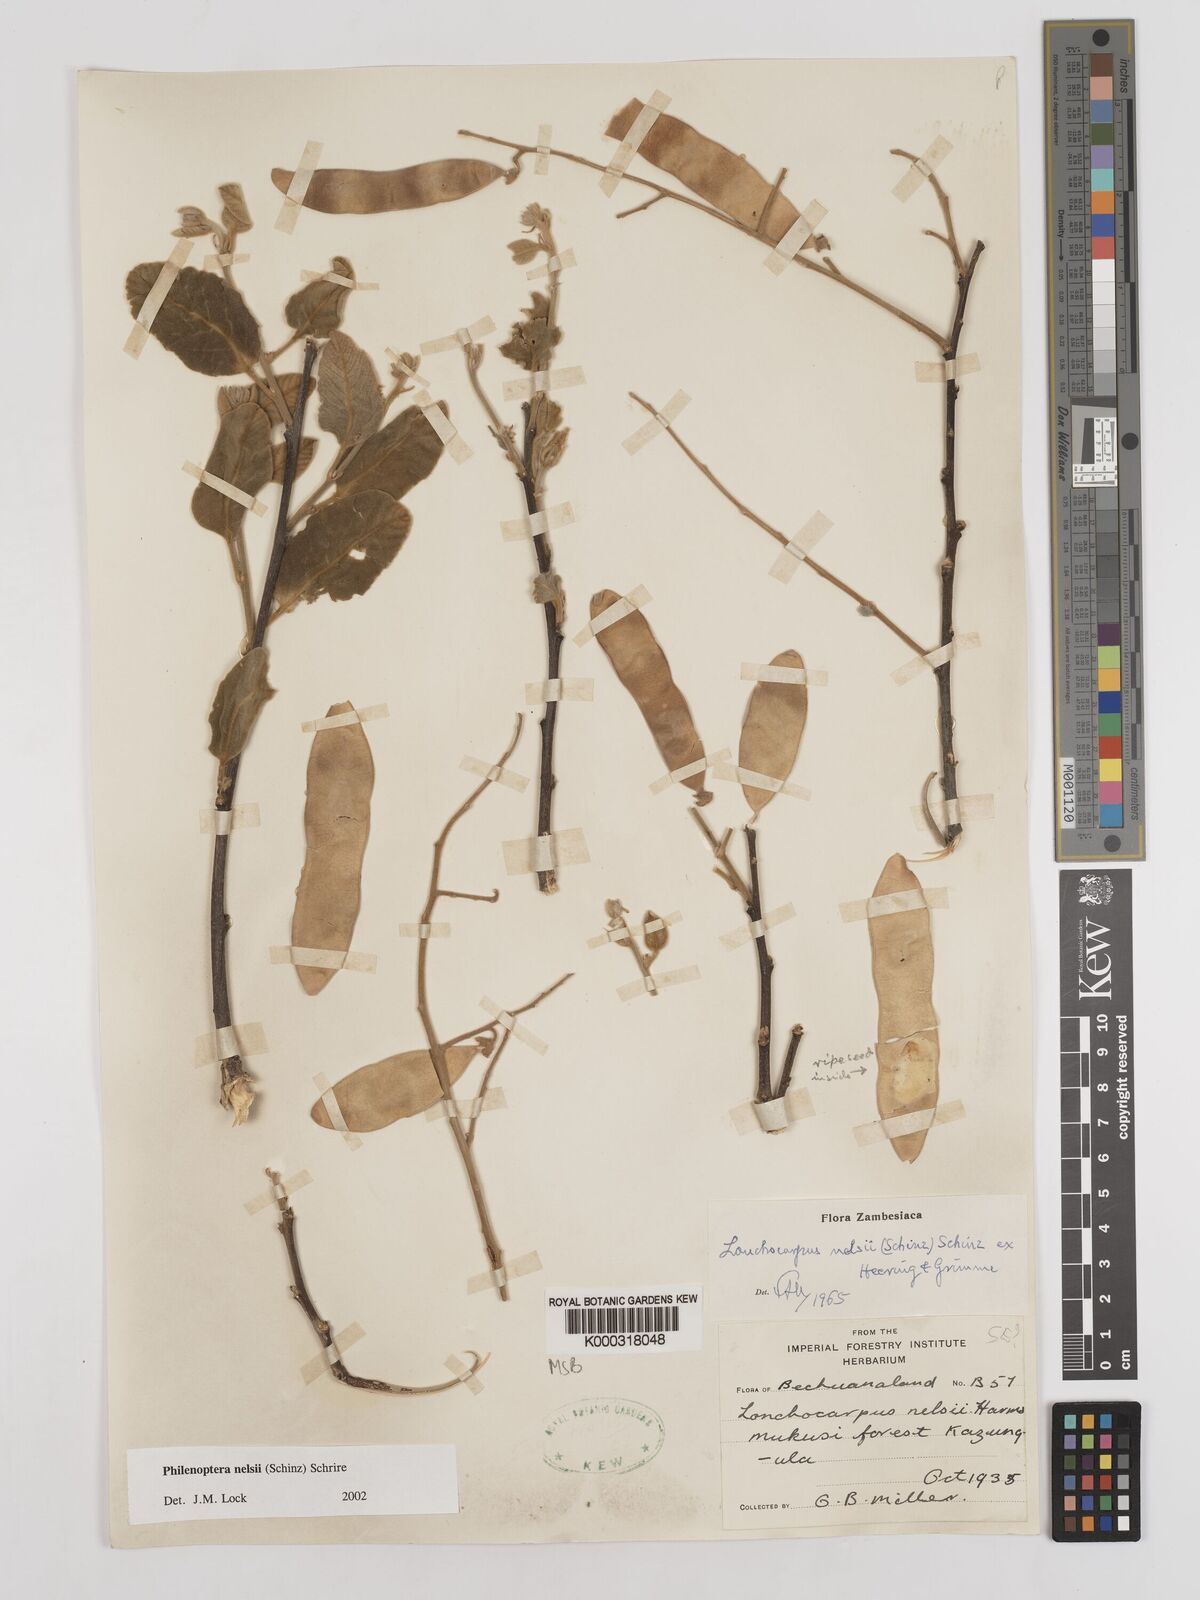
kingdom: Plantae
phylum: Tracheophyta
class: Magnoliopsida
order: Fabales
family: Fabaceae
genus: Philenoptera
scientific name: Philenoptera nelsii
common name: Kalahari apple-leaf
